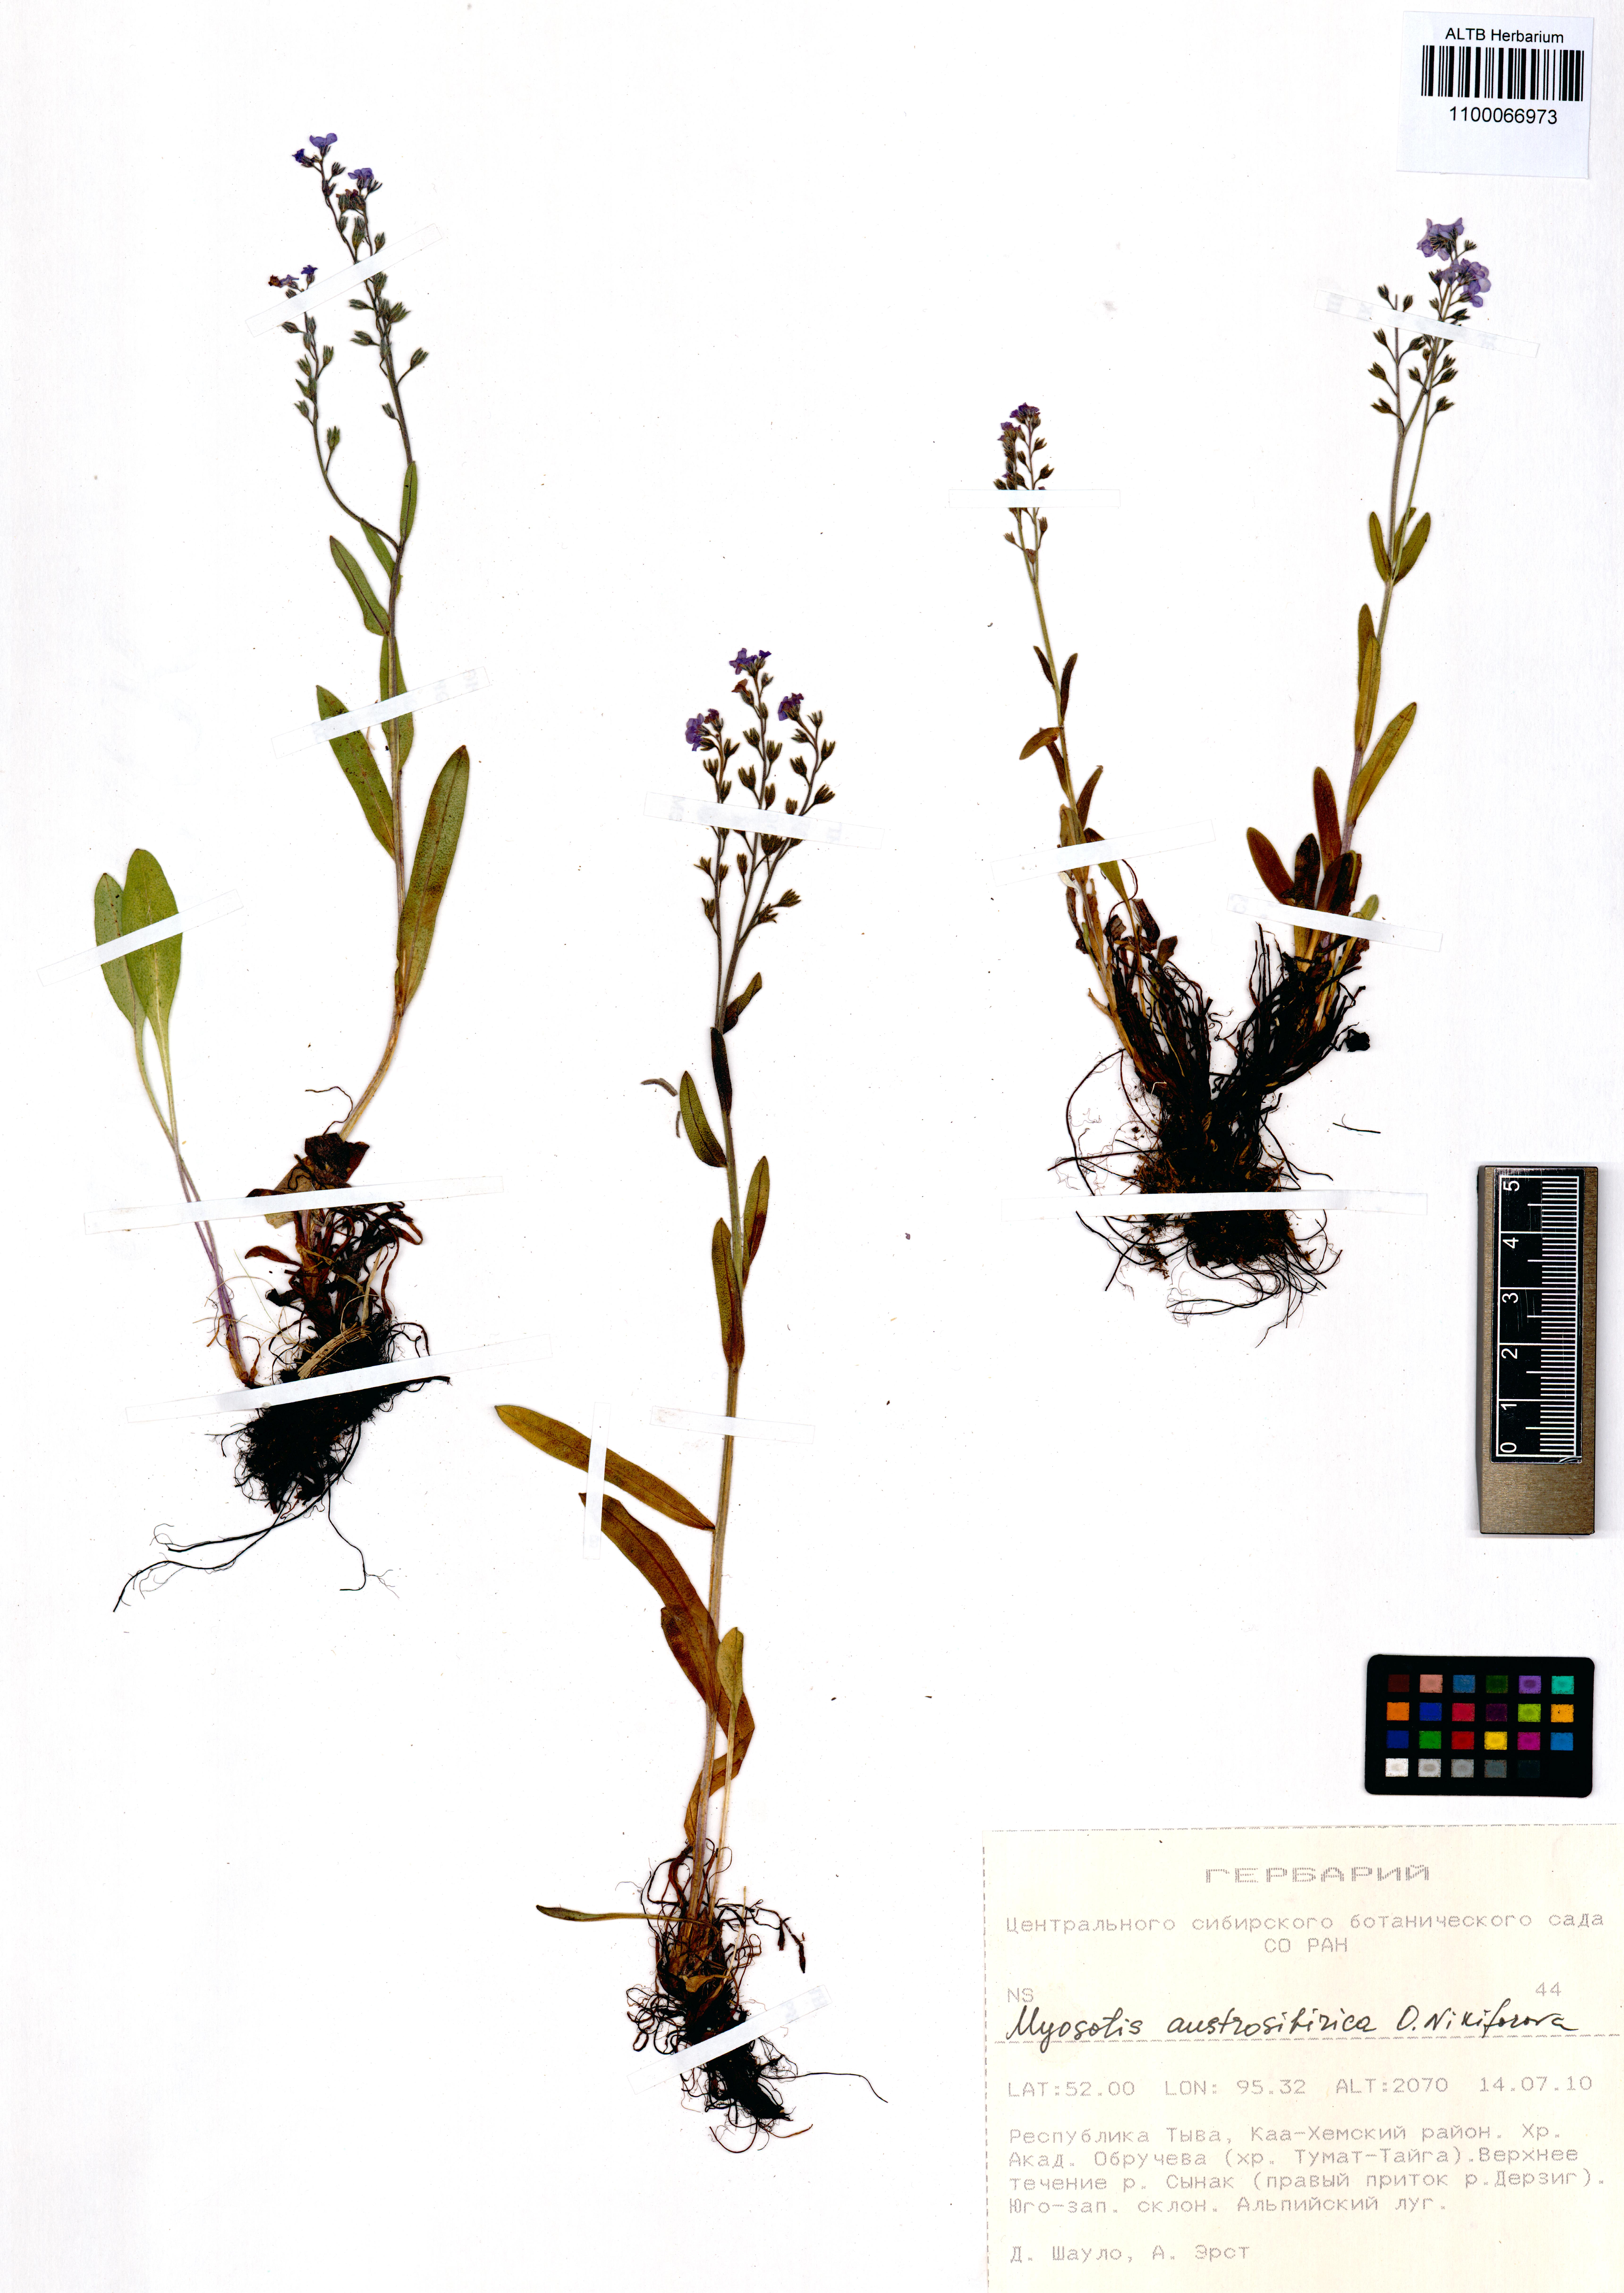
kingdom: Plantae
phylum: Tracheophyta
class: Magnoliopsida
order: Boraginales
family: Boraginaceae
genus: Myosotis
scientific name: Myosotis austrosibirica
